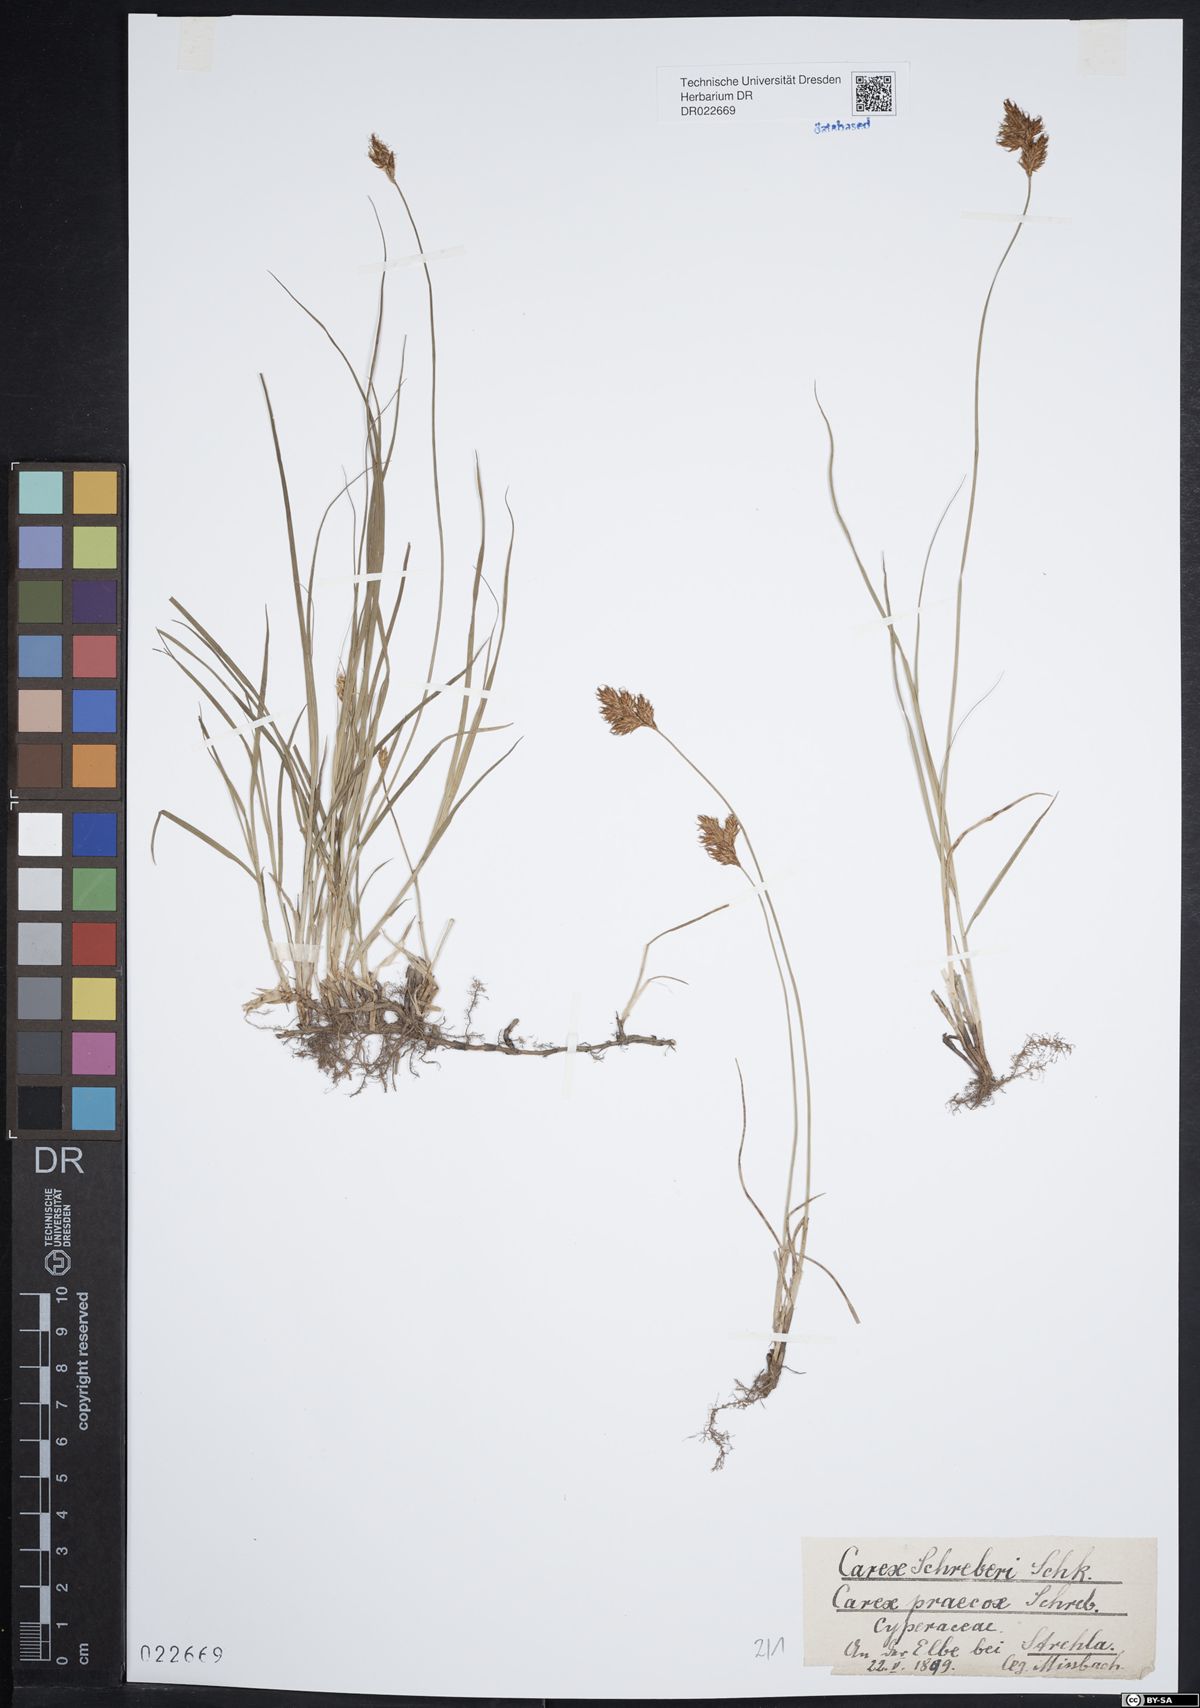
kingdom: Plantae
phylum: Tracheophyta
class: Liliopsida
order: Poales
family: Cyperaceae
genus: Carex
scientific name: Carex praecox
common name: Early sedge
